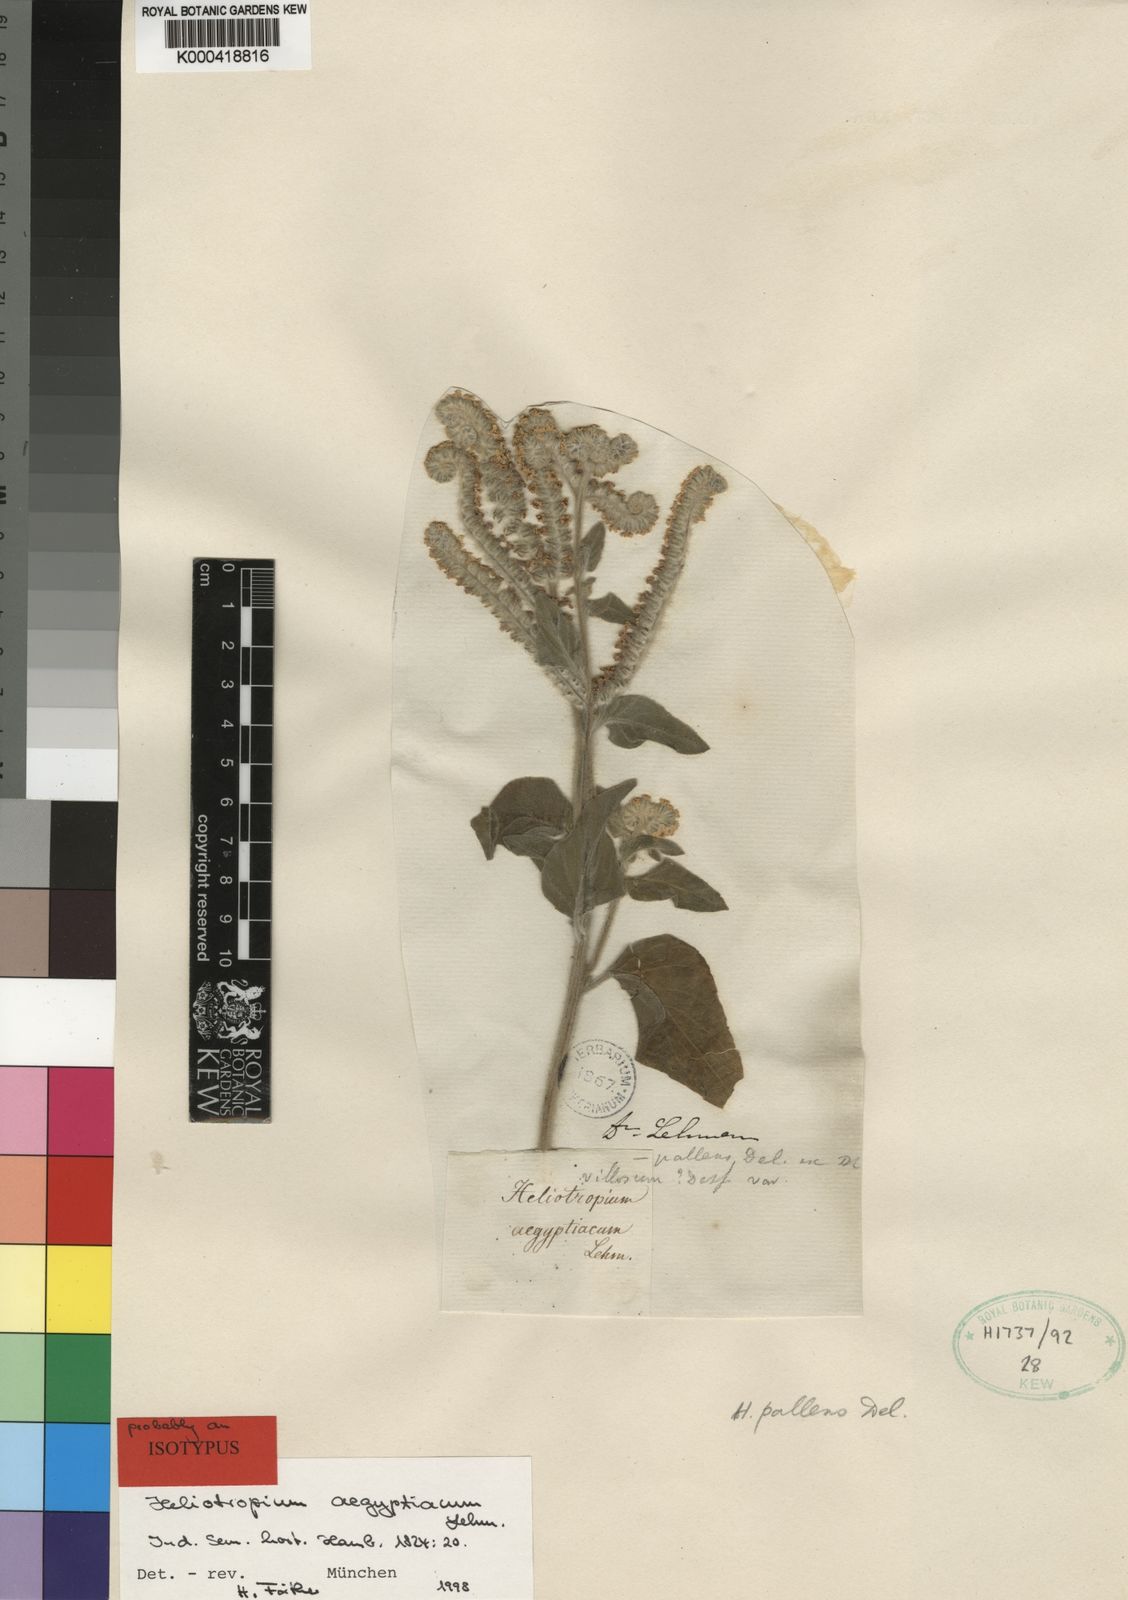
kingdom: Plantae
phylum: Tracheophyta
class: Magnoliopsida
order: Boraginales
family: Heliotropiaceae
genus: Heliotropium
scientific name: Heliotropium aegyptiacum
